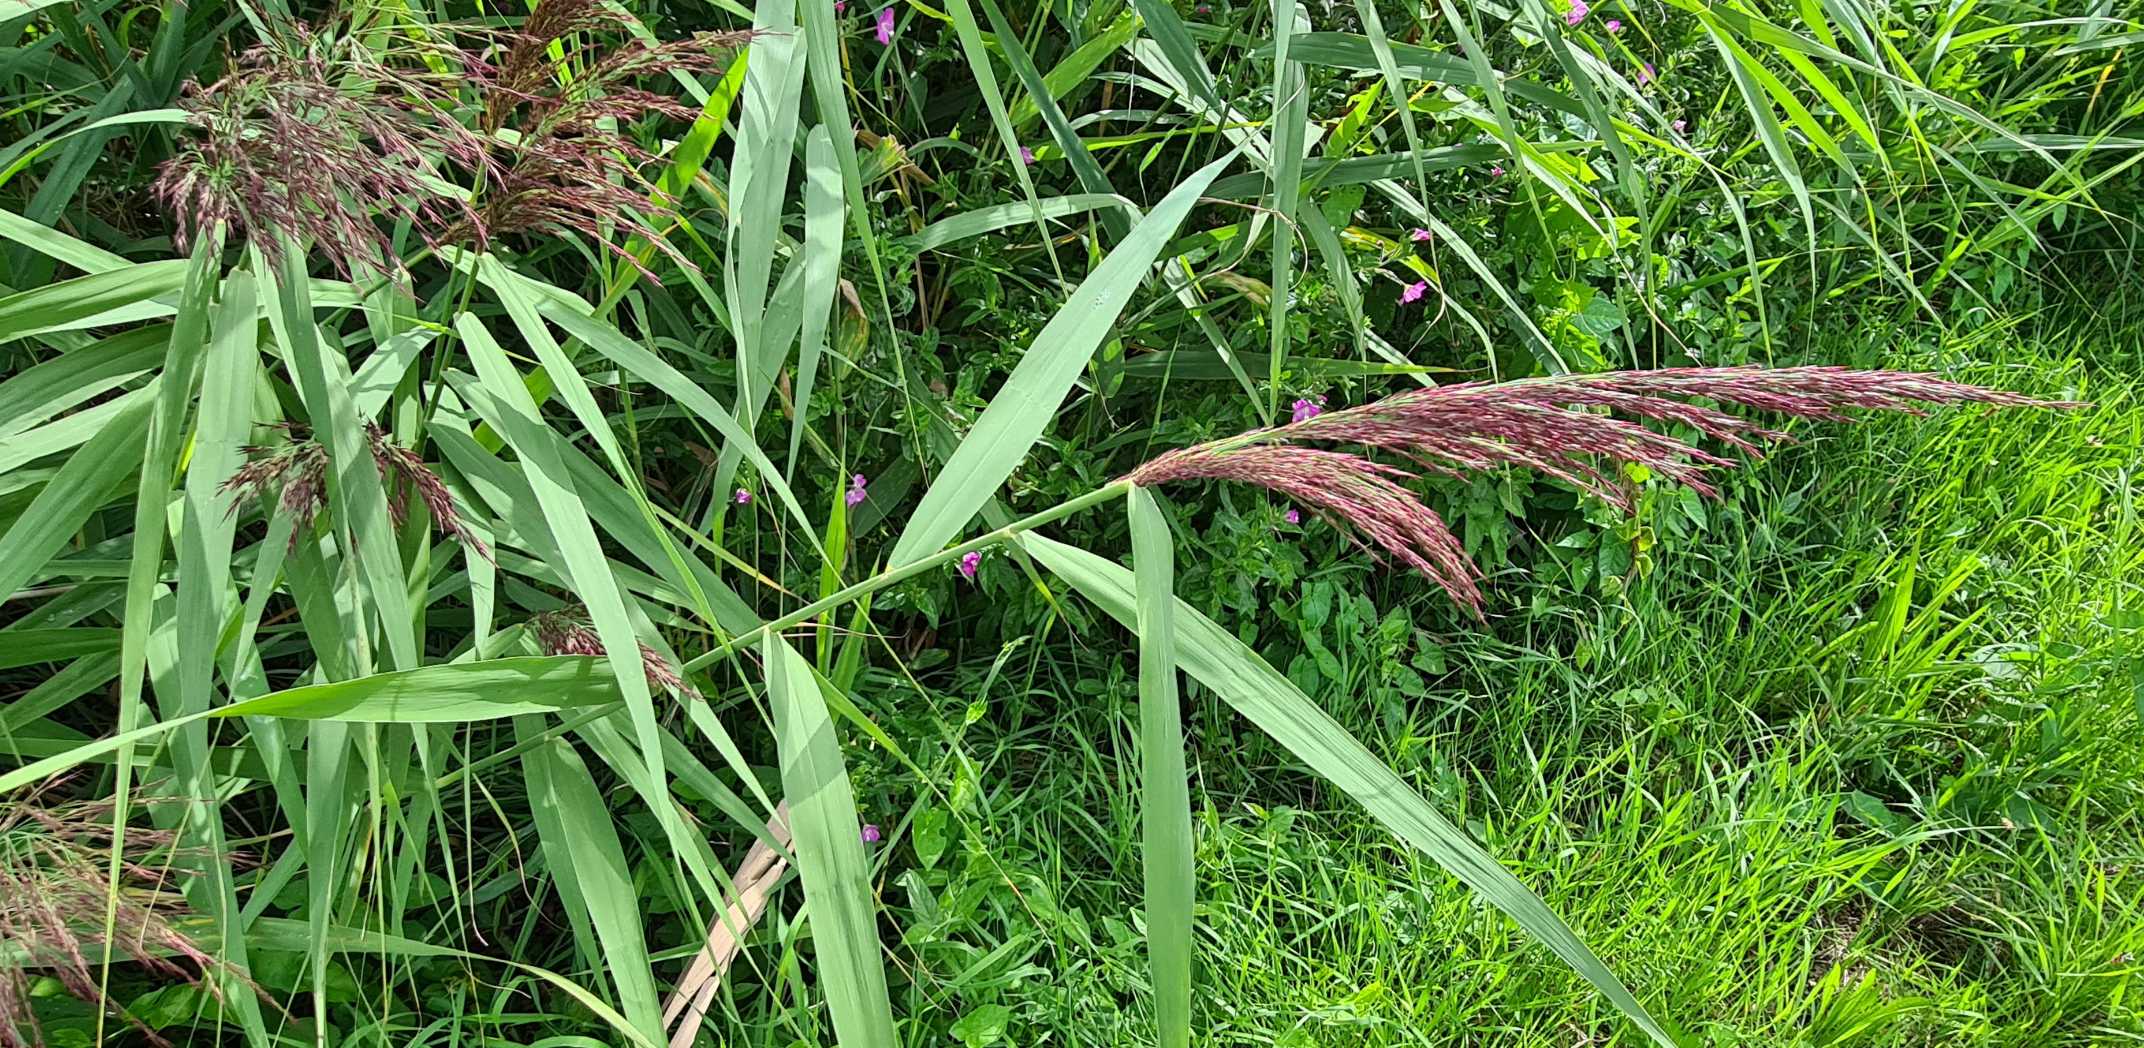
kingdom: Plantae
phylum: Tracheophyta
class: Liliopsida
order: Poales
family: Poaceae
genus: Phragmites
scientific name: Phragmites australis
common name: Tagrør
